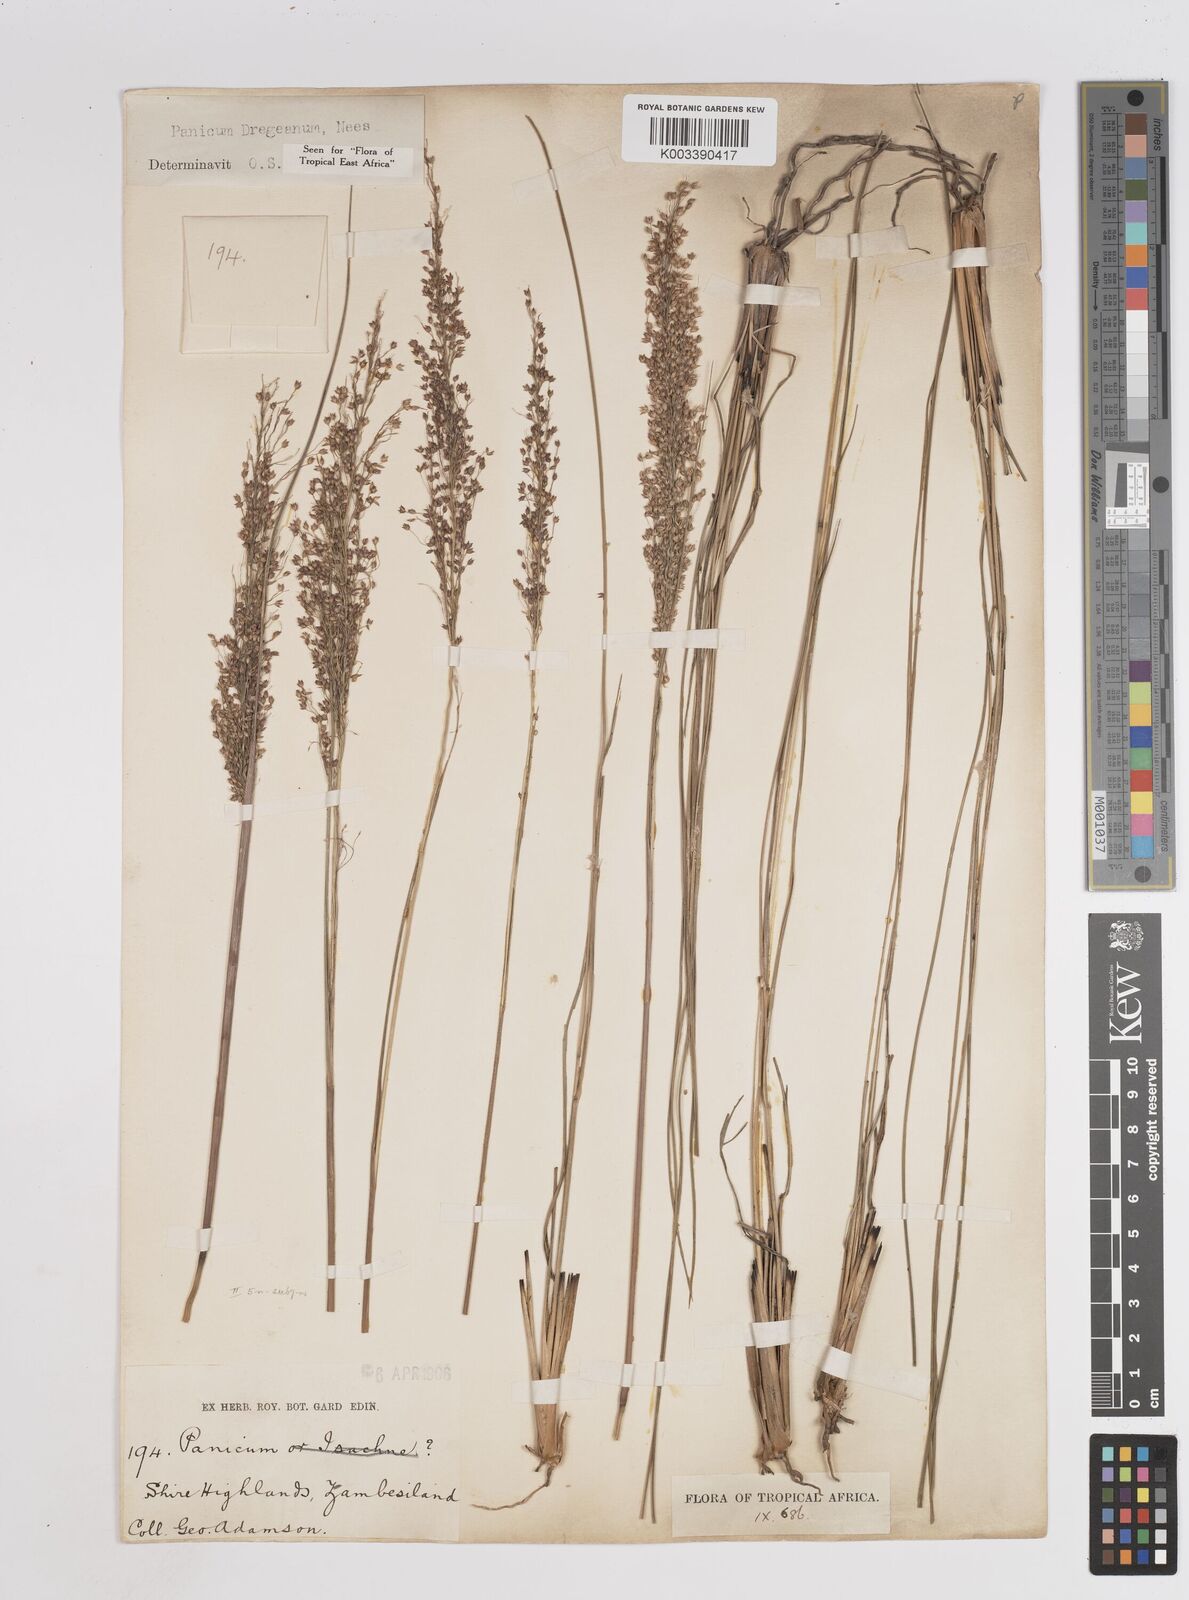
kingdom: Plantae
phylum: Tracheophyta
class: Liliopsida
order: Poales
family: Poaceae
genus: Panicum
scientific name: Panicum dregeanum
